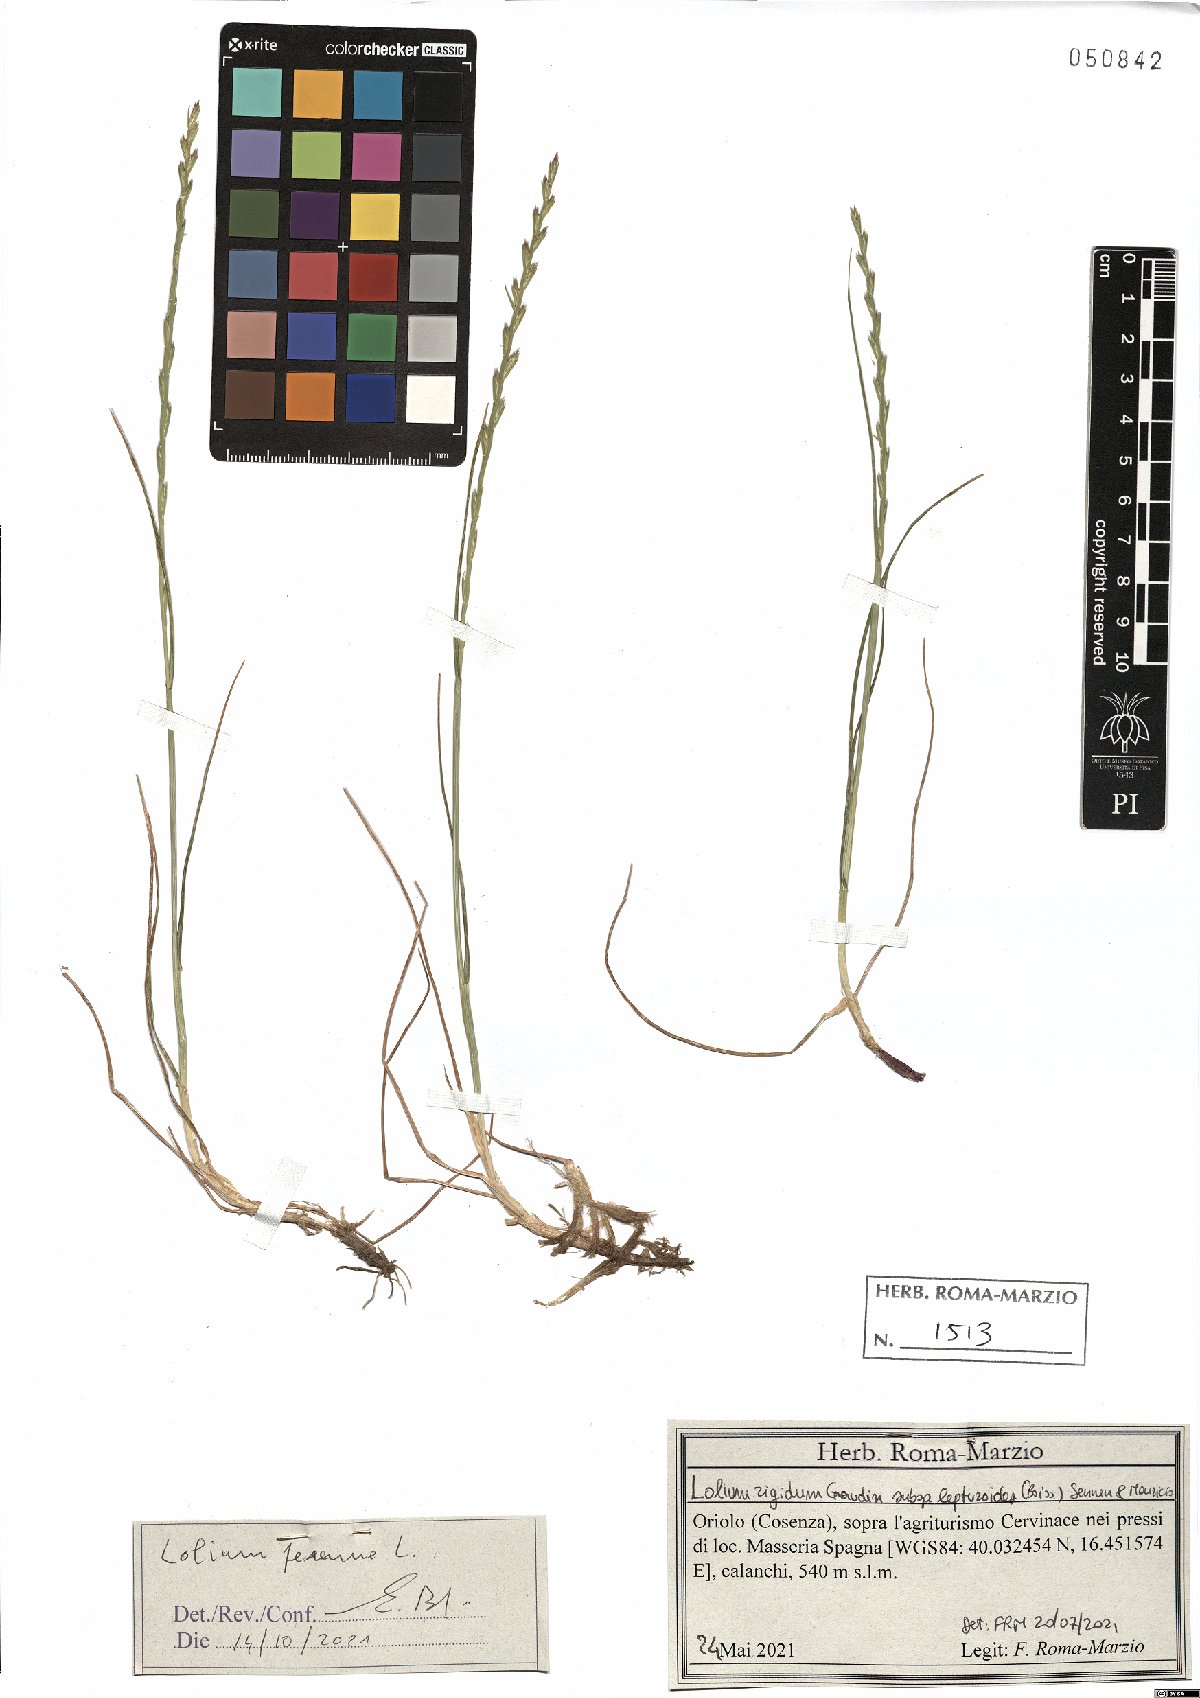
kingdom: Plantae
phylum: Tracheophyta
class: Liliopsida
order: Poales
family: Poaceae
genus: Lolium
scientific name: Lolium perenne
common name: Perennial ryegrass
